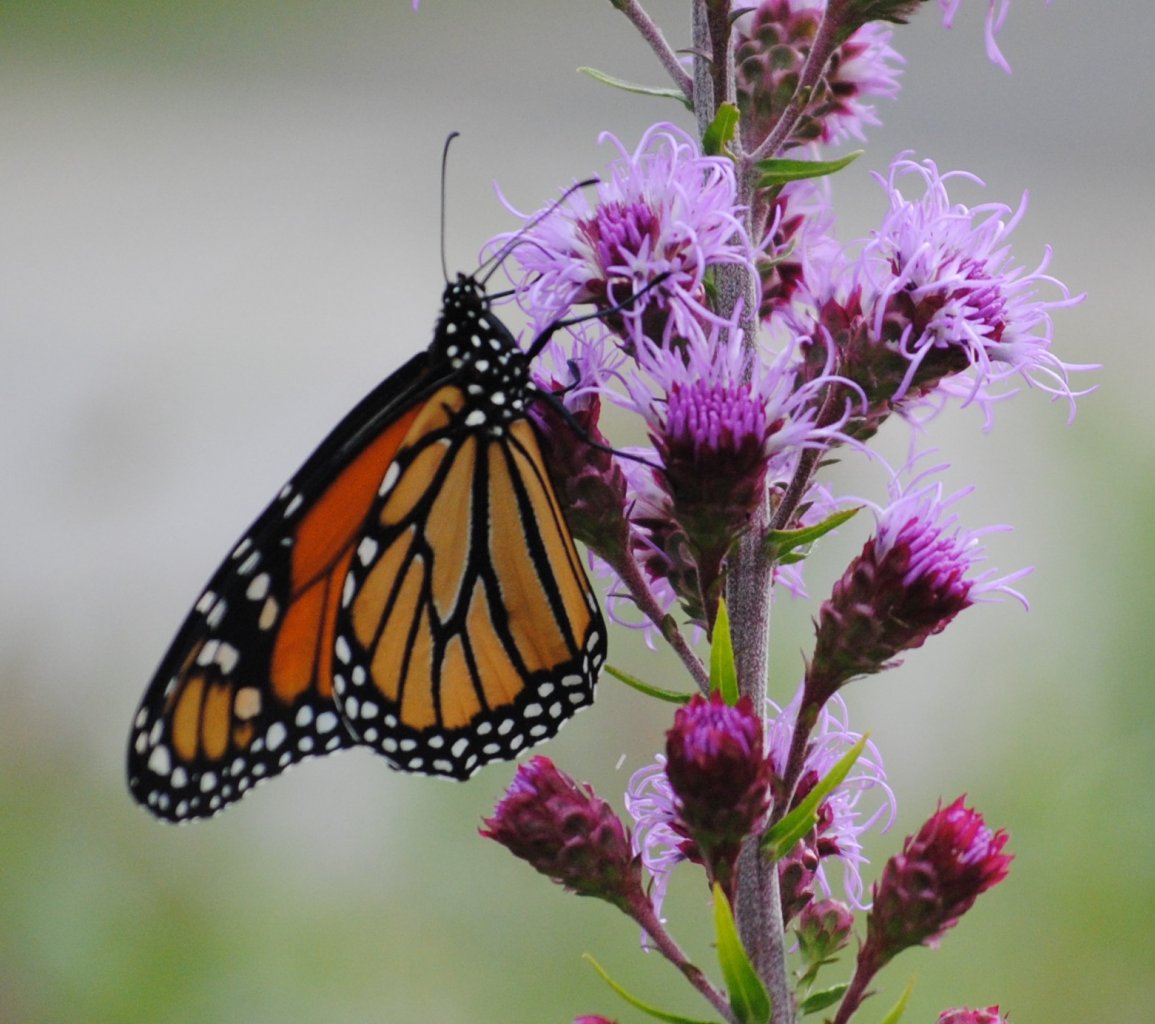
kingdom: Animalia
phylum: Arthropoda
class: Insecta
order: Lepidoptera
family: Nymphalidae
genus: Danaus
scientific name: Danaus plexippus
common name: Monarch
